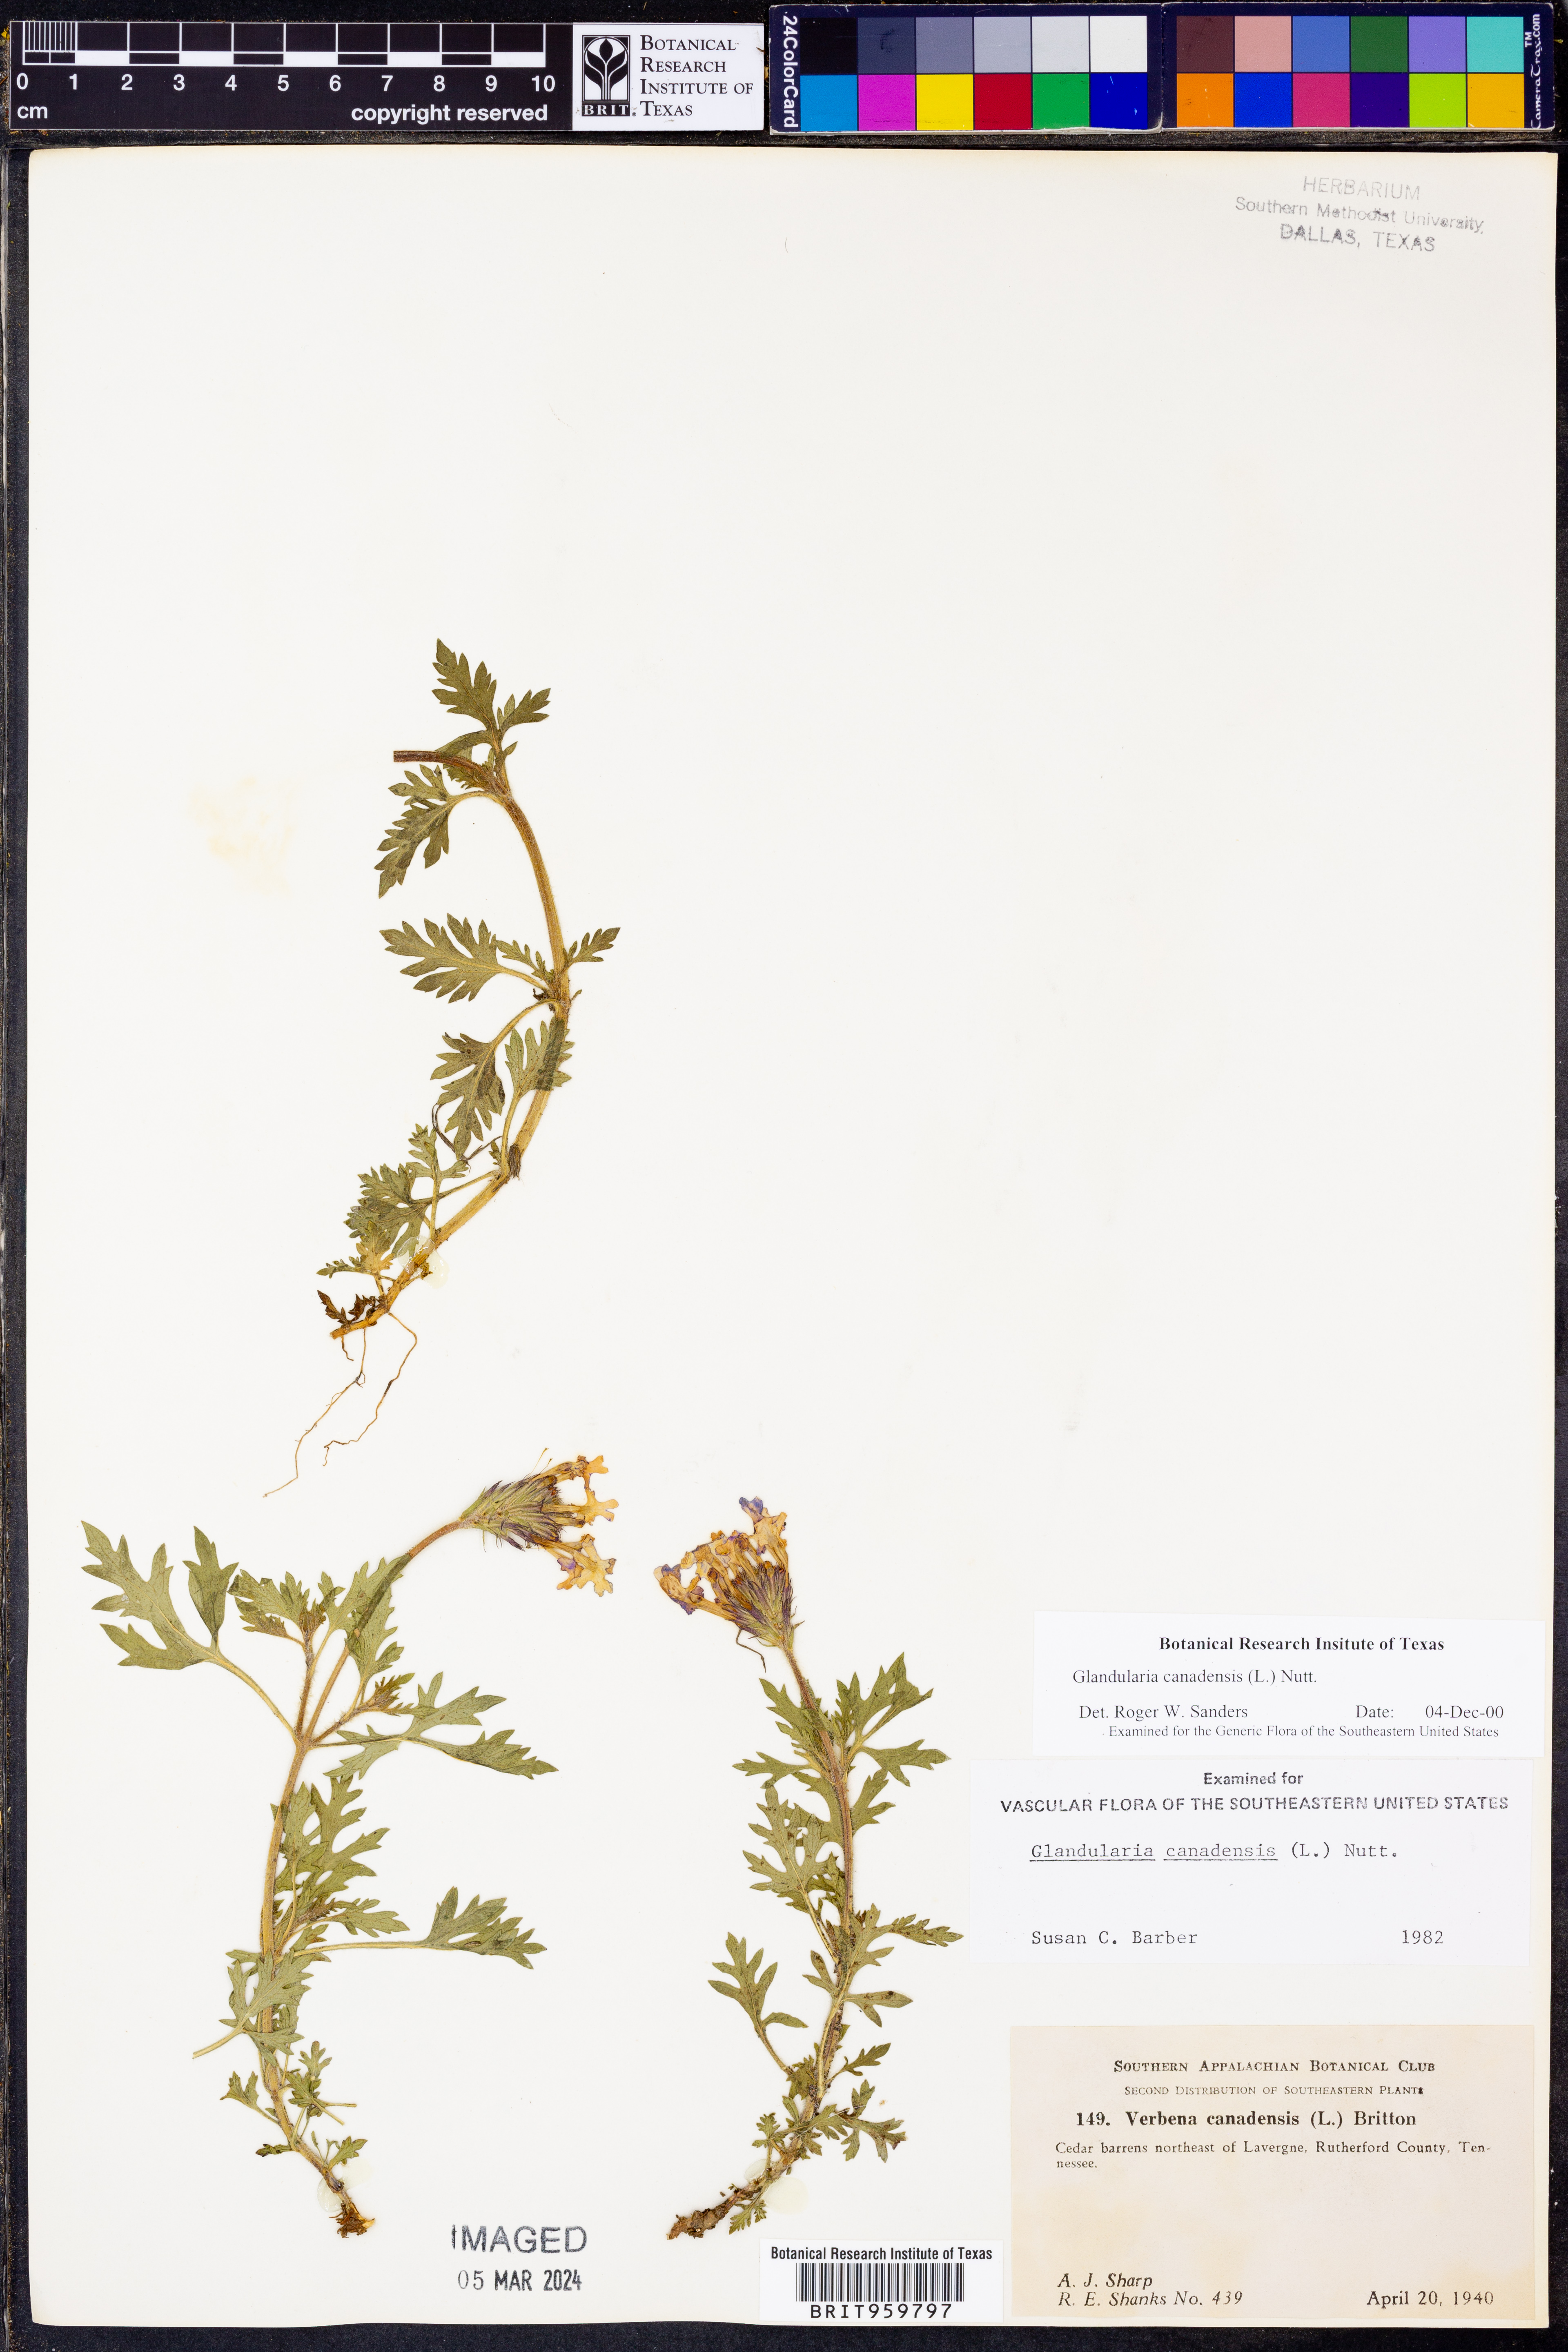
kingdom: Plantae
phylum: Tracheophyta
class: Magnoliopsida
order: Lamiales
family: Verbenaceae
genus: Verbena
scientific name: Verbena canadensis
